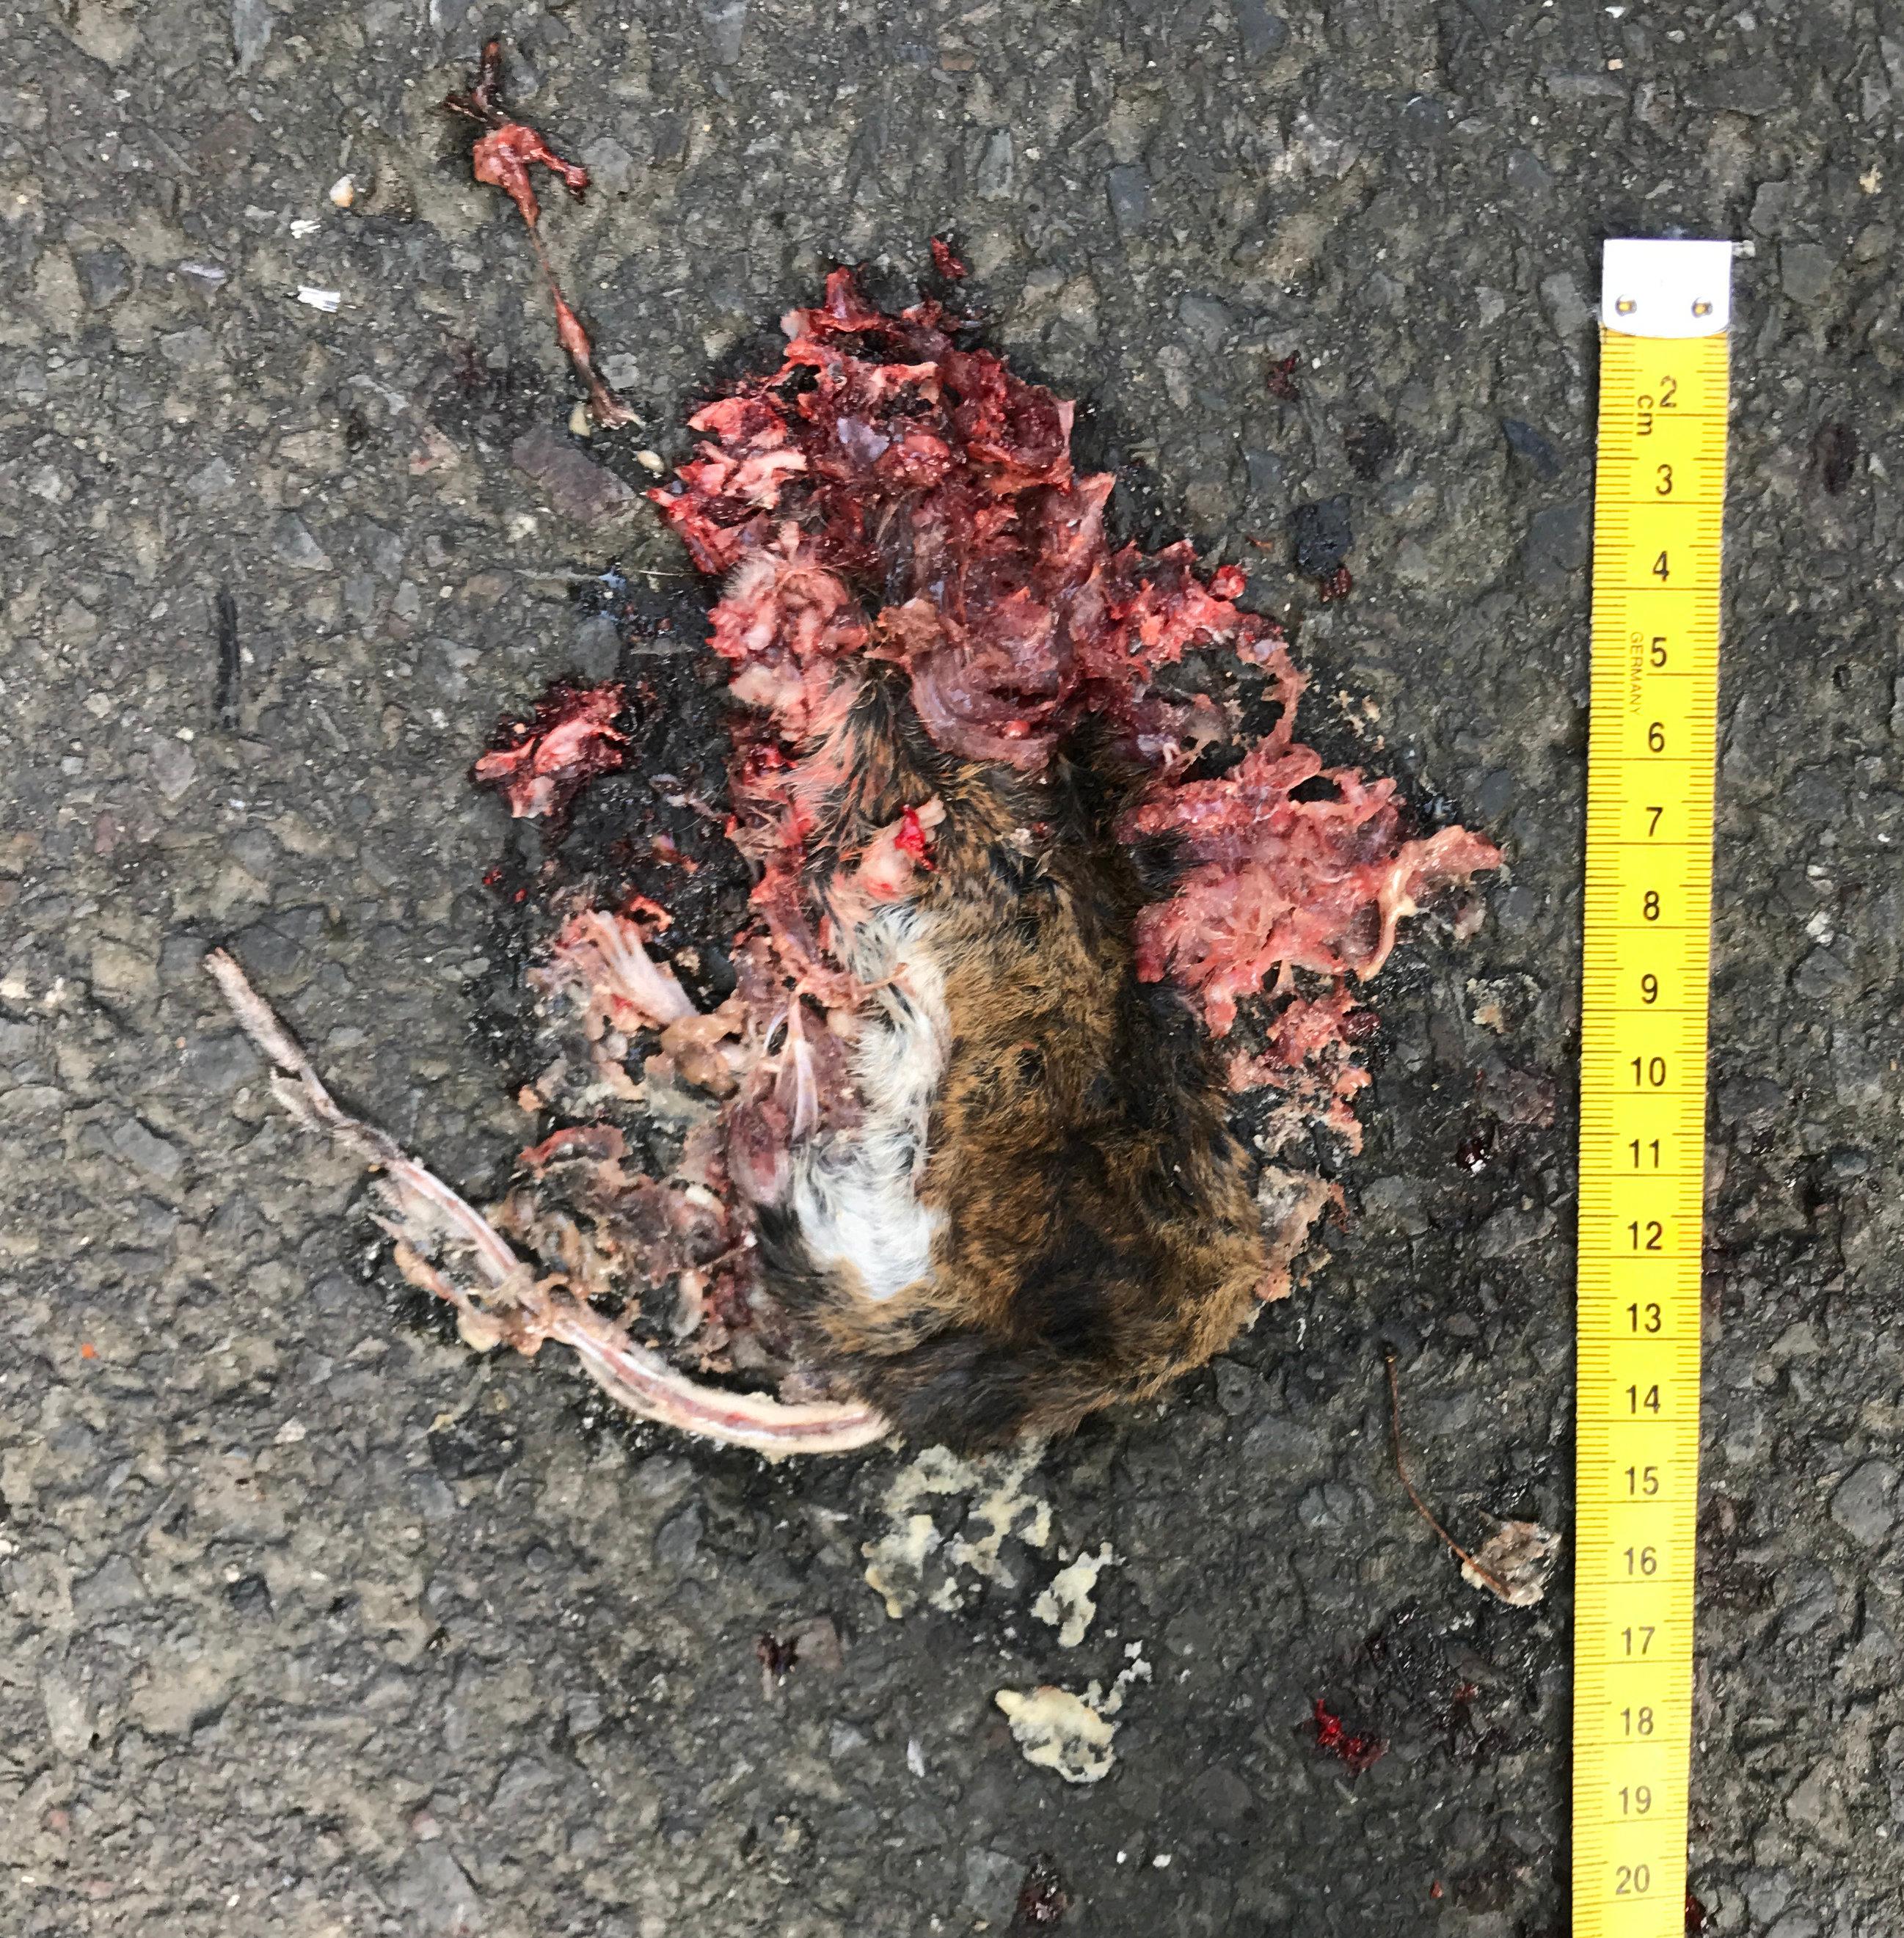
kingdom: Animalia
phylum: Chordata
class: Mammalia
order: Rodentia
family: Muridae
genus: Apodemus
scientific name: Apodemus
